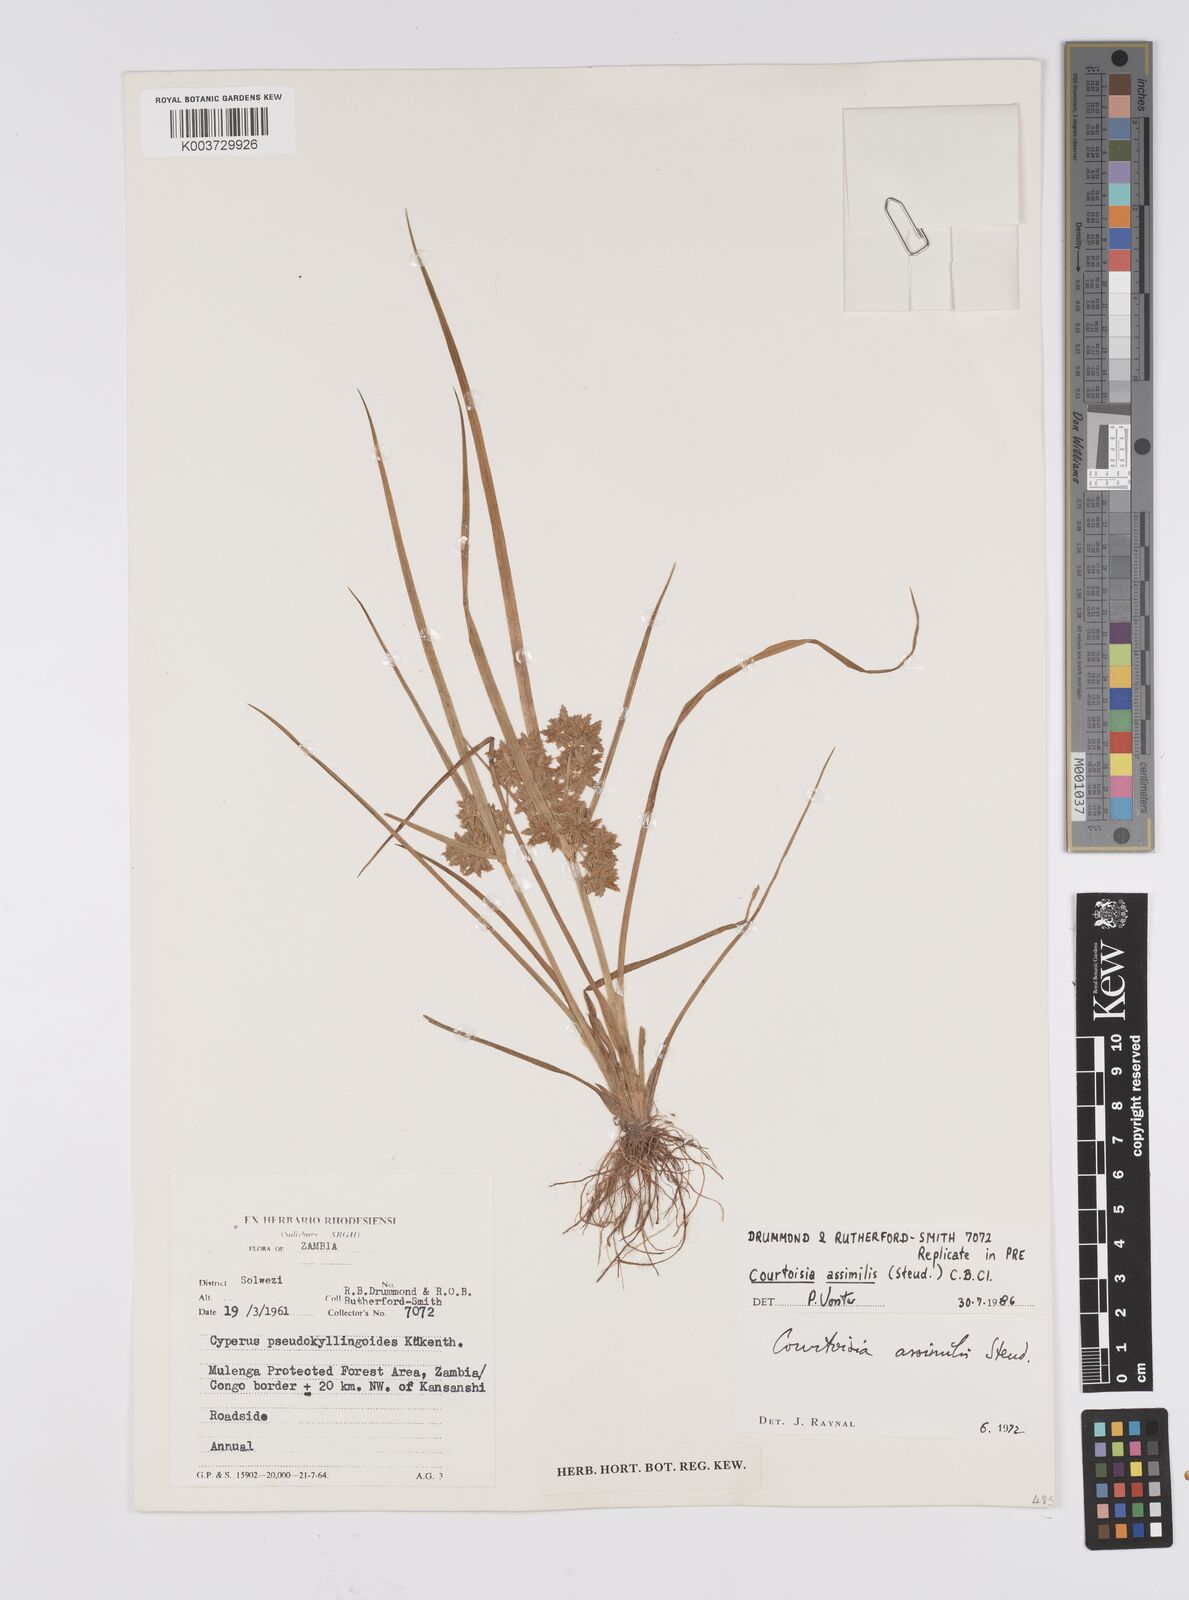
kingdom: Plantae
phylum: Tracheophyta
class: Liliopsida
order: Poales
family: Cyperaceae
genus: Cyperus
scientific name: Cyperus assimilis
